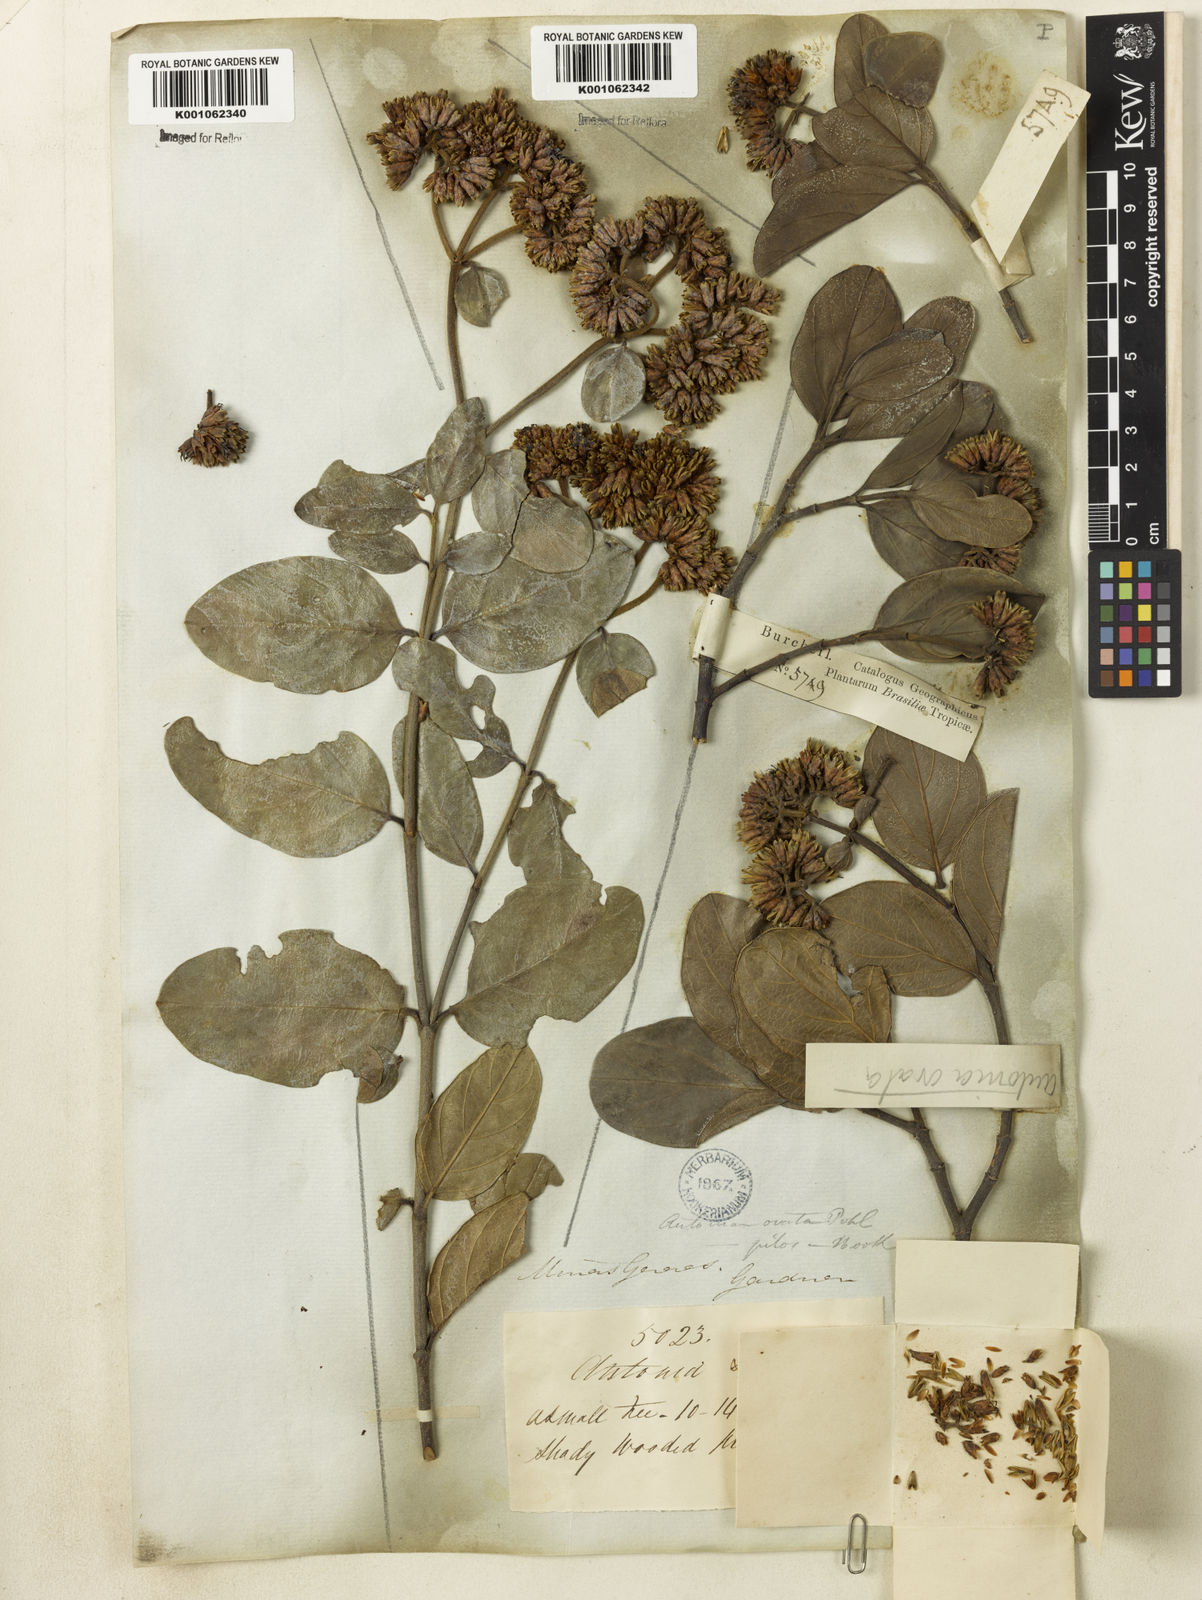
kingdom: Plantae
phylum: Tracheophyta
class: Magnoliopsida
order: Gentianales
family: Loganiaceae
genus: Antonia
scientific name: Antonia ovata
